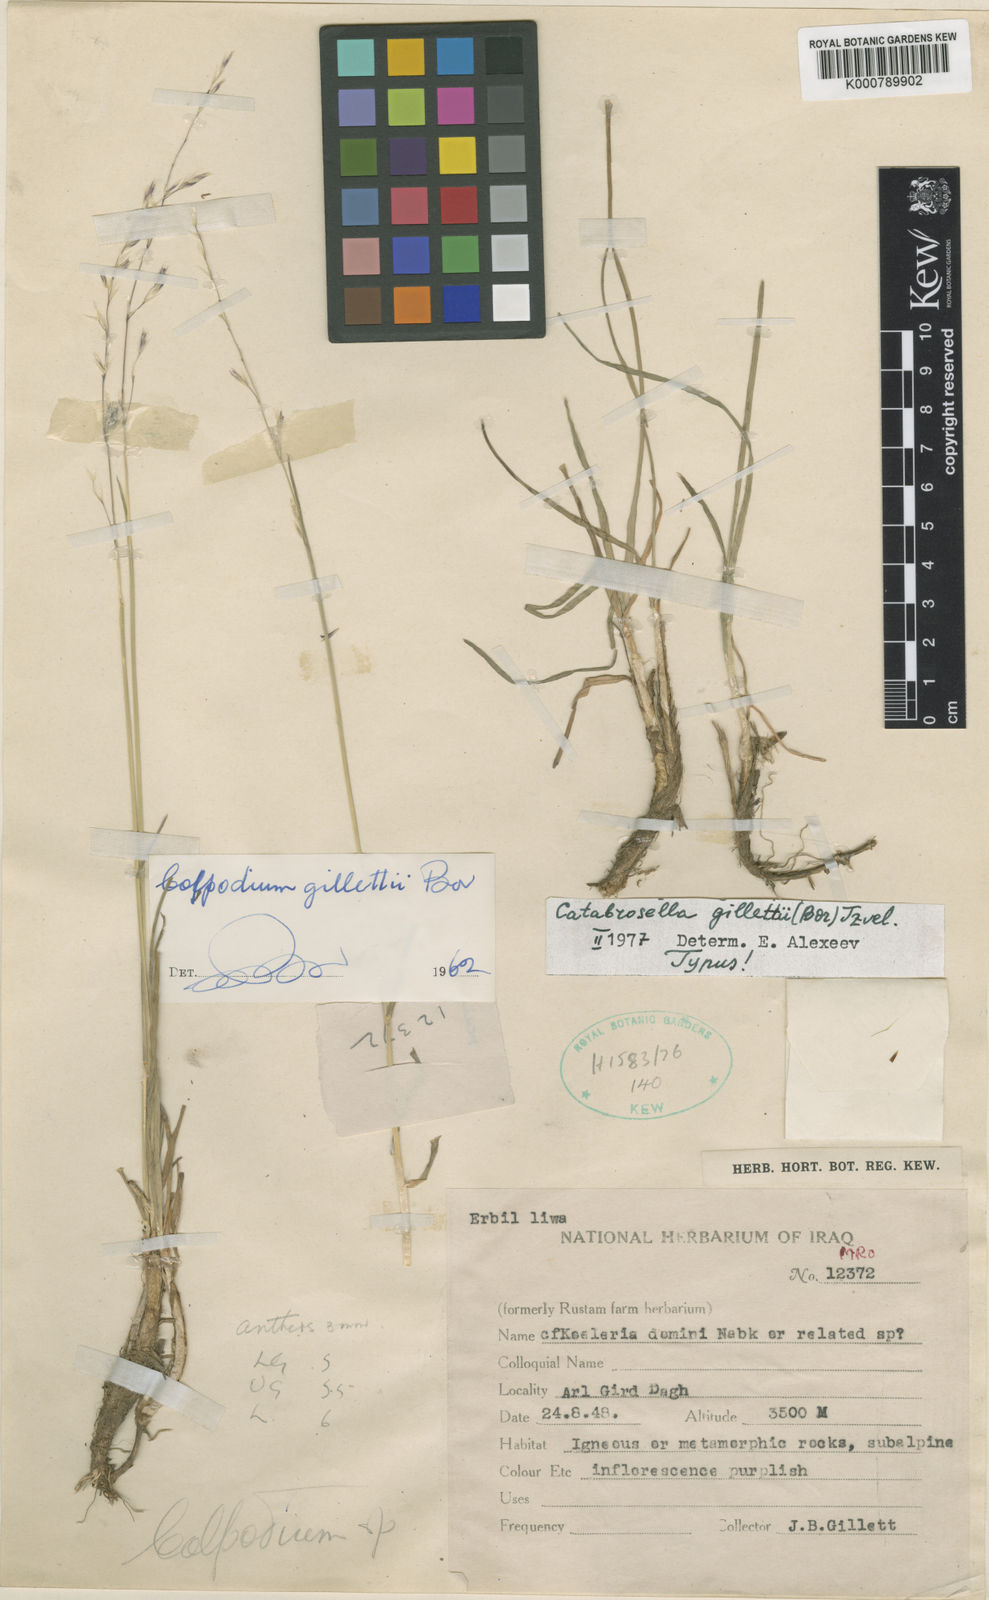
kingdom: Plantae
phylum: Tracheophyta
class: Liliopsida
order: Poales
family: Poaceae
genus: Catabrosella
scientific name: Catabrosella gillettii
